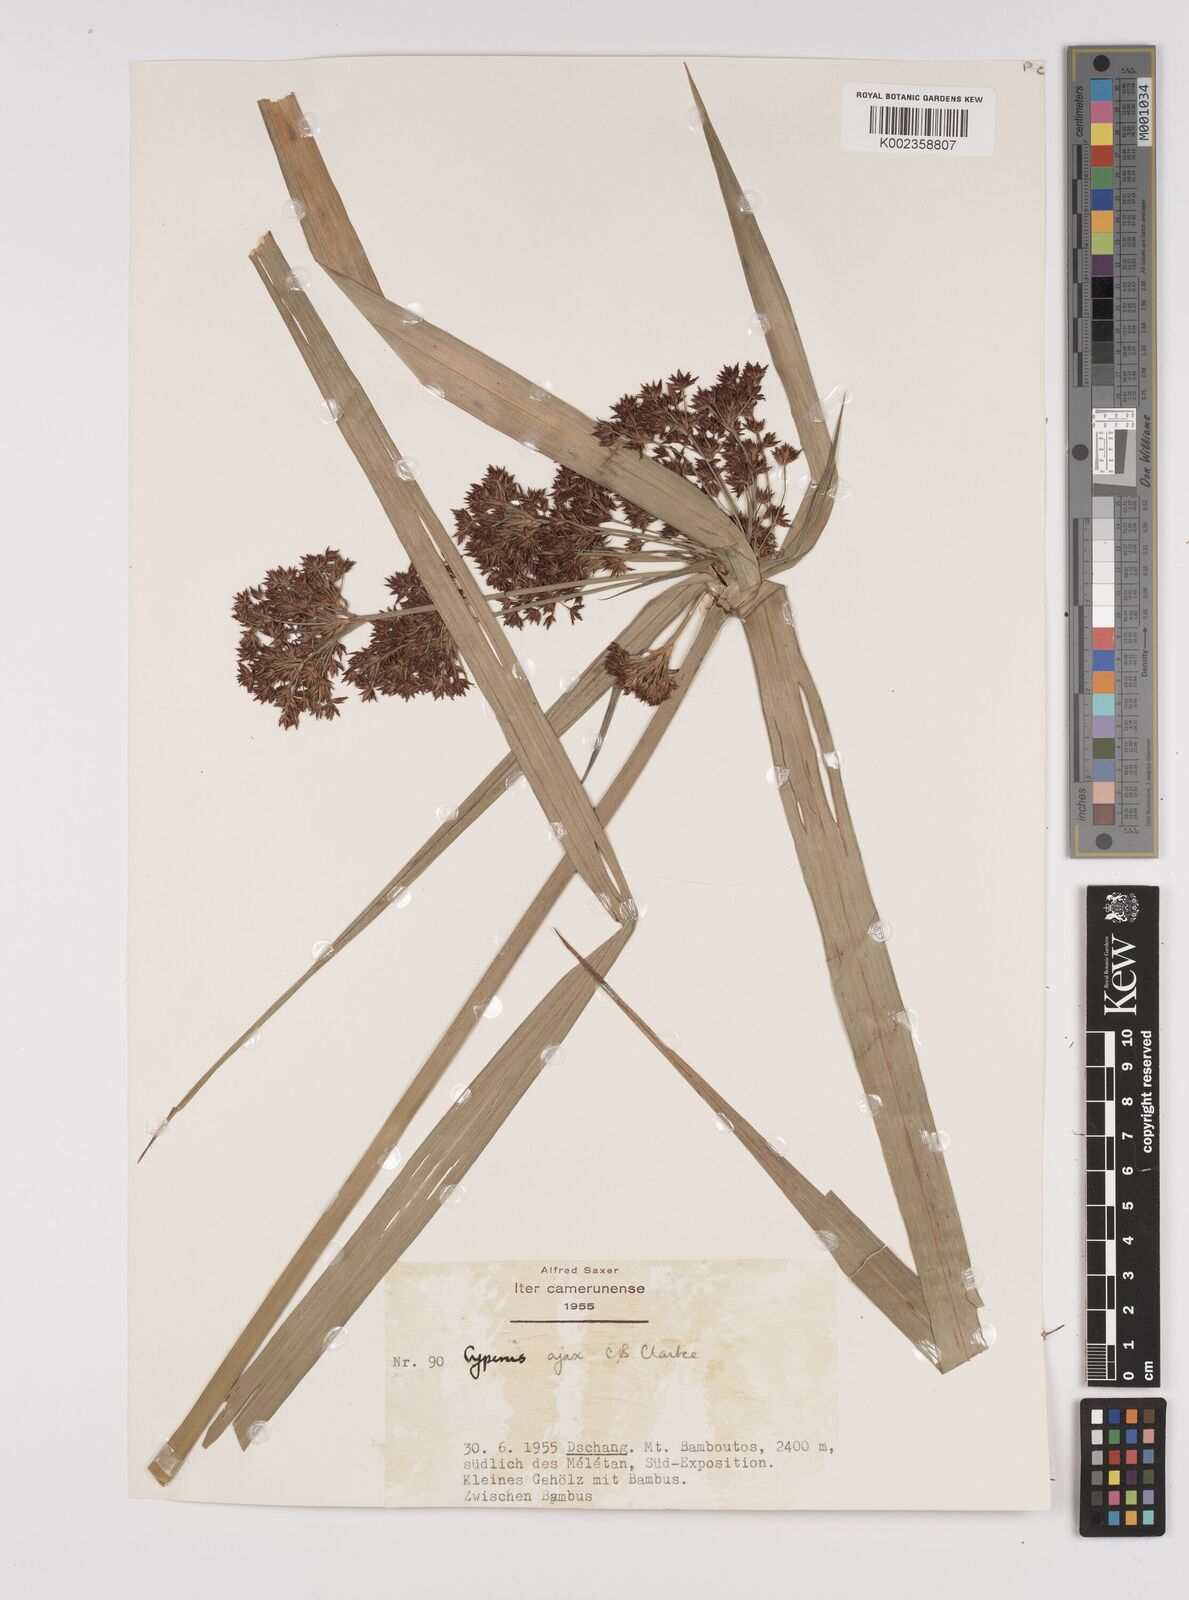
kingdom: Plantae
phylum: Tracheophyta
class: Liliopsida
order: Poales
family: Cyperaceae
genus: Cyperus
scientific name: Cyperus ajax
